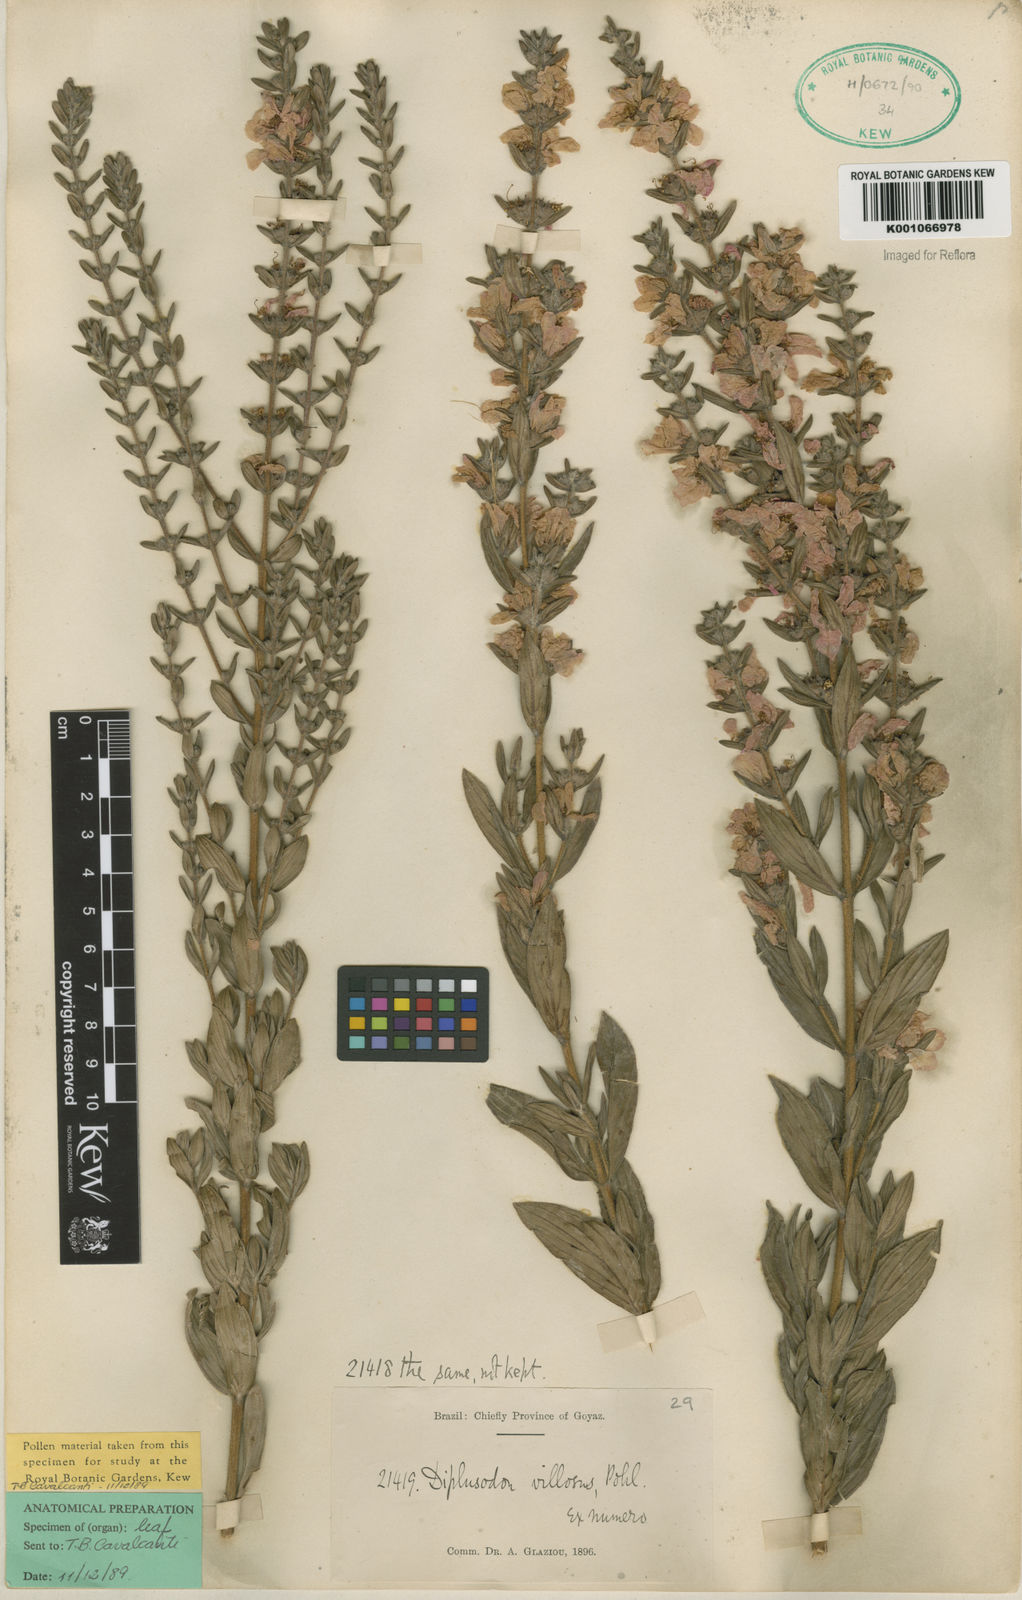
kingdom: Plantae
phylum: Tracheophyta
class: Magnoliopsida
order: Myrtales
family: Lythraceae
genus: Diplusodon
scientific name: Diplusodon villosus
